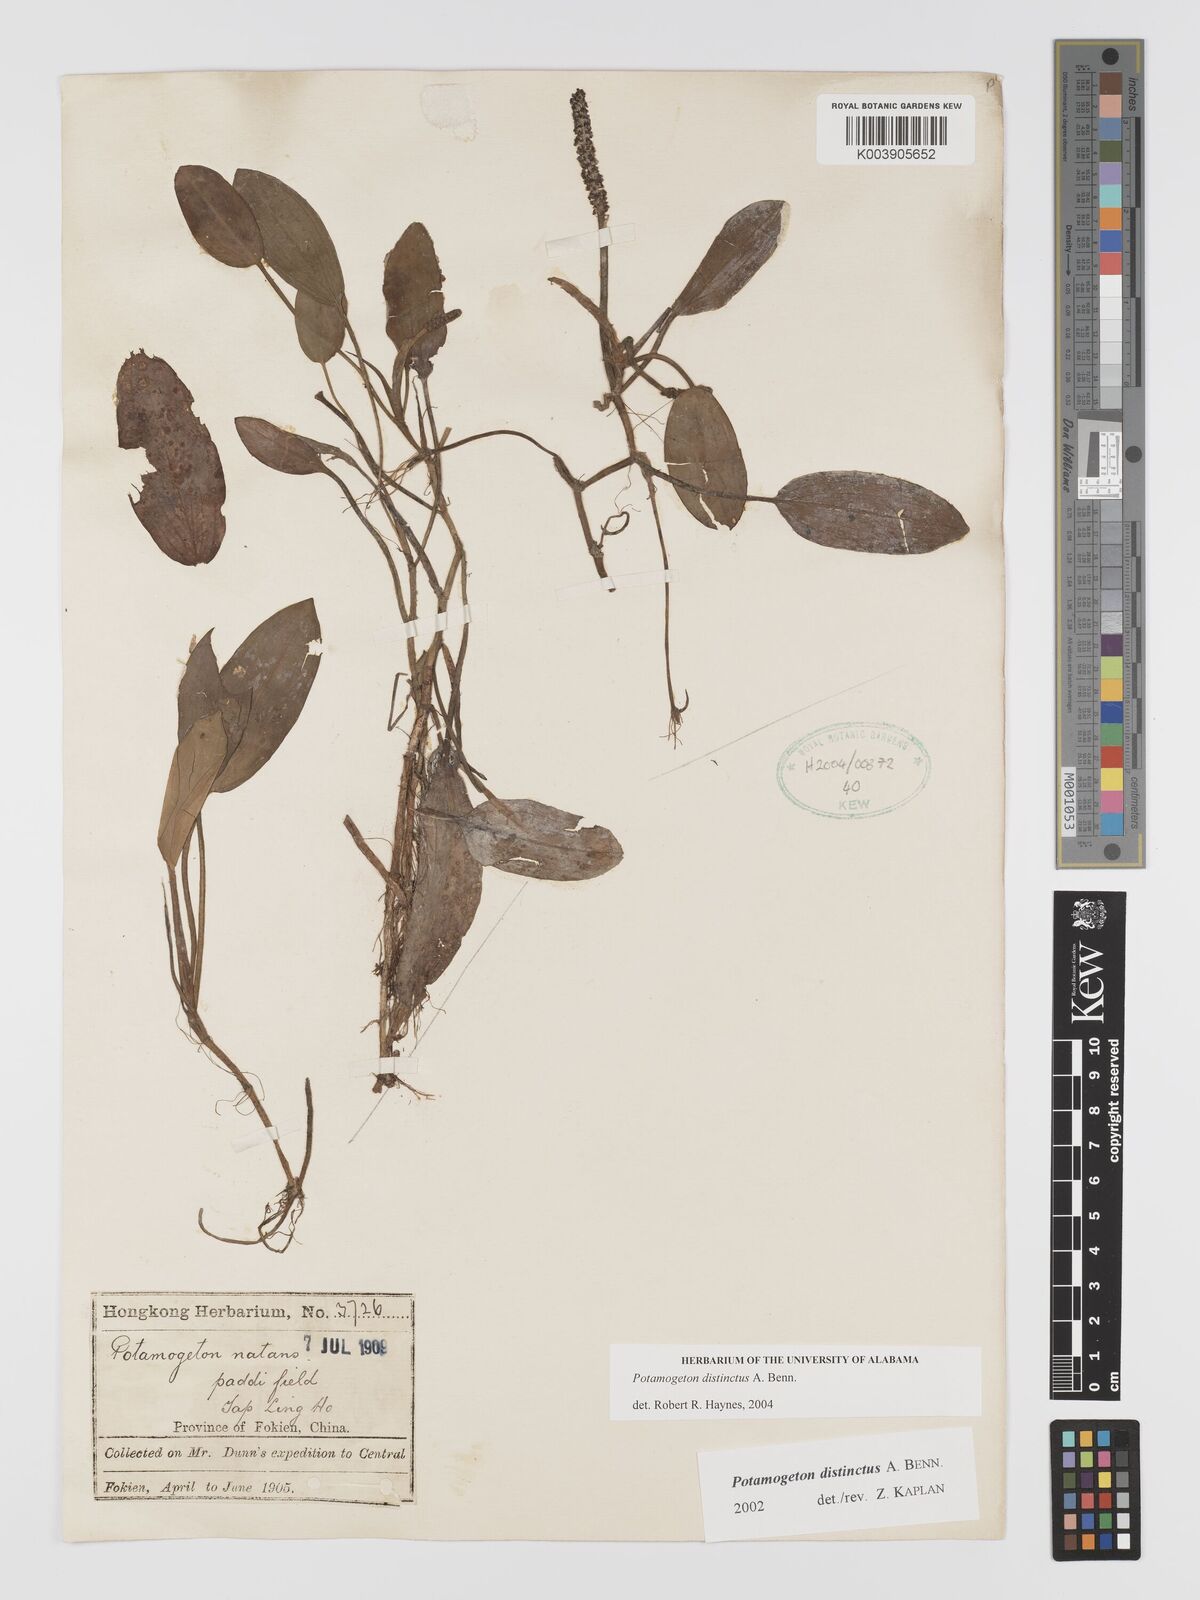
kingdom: Plantae
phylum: Tracheophyta
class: Liliopsida
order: Alismatales
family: Potamogetonaceae
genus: Potamogeton
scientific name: Potamogeton distinctus
